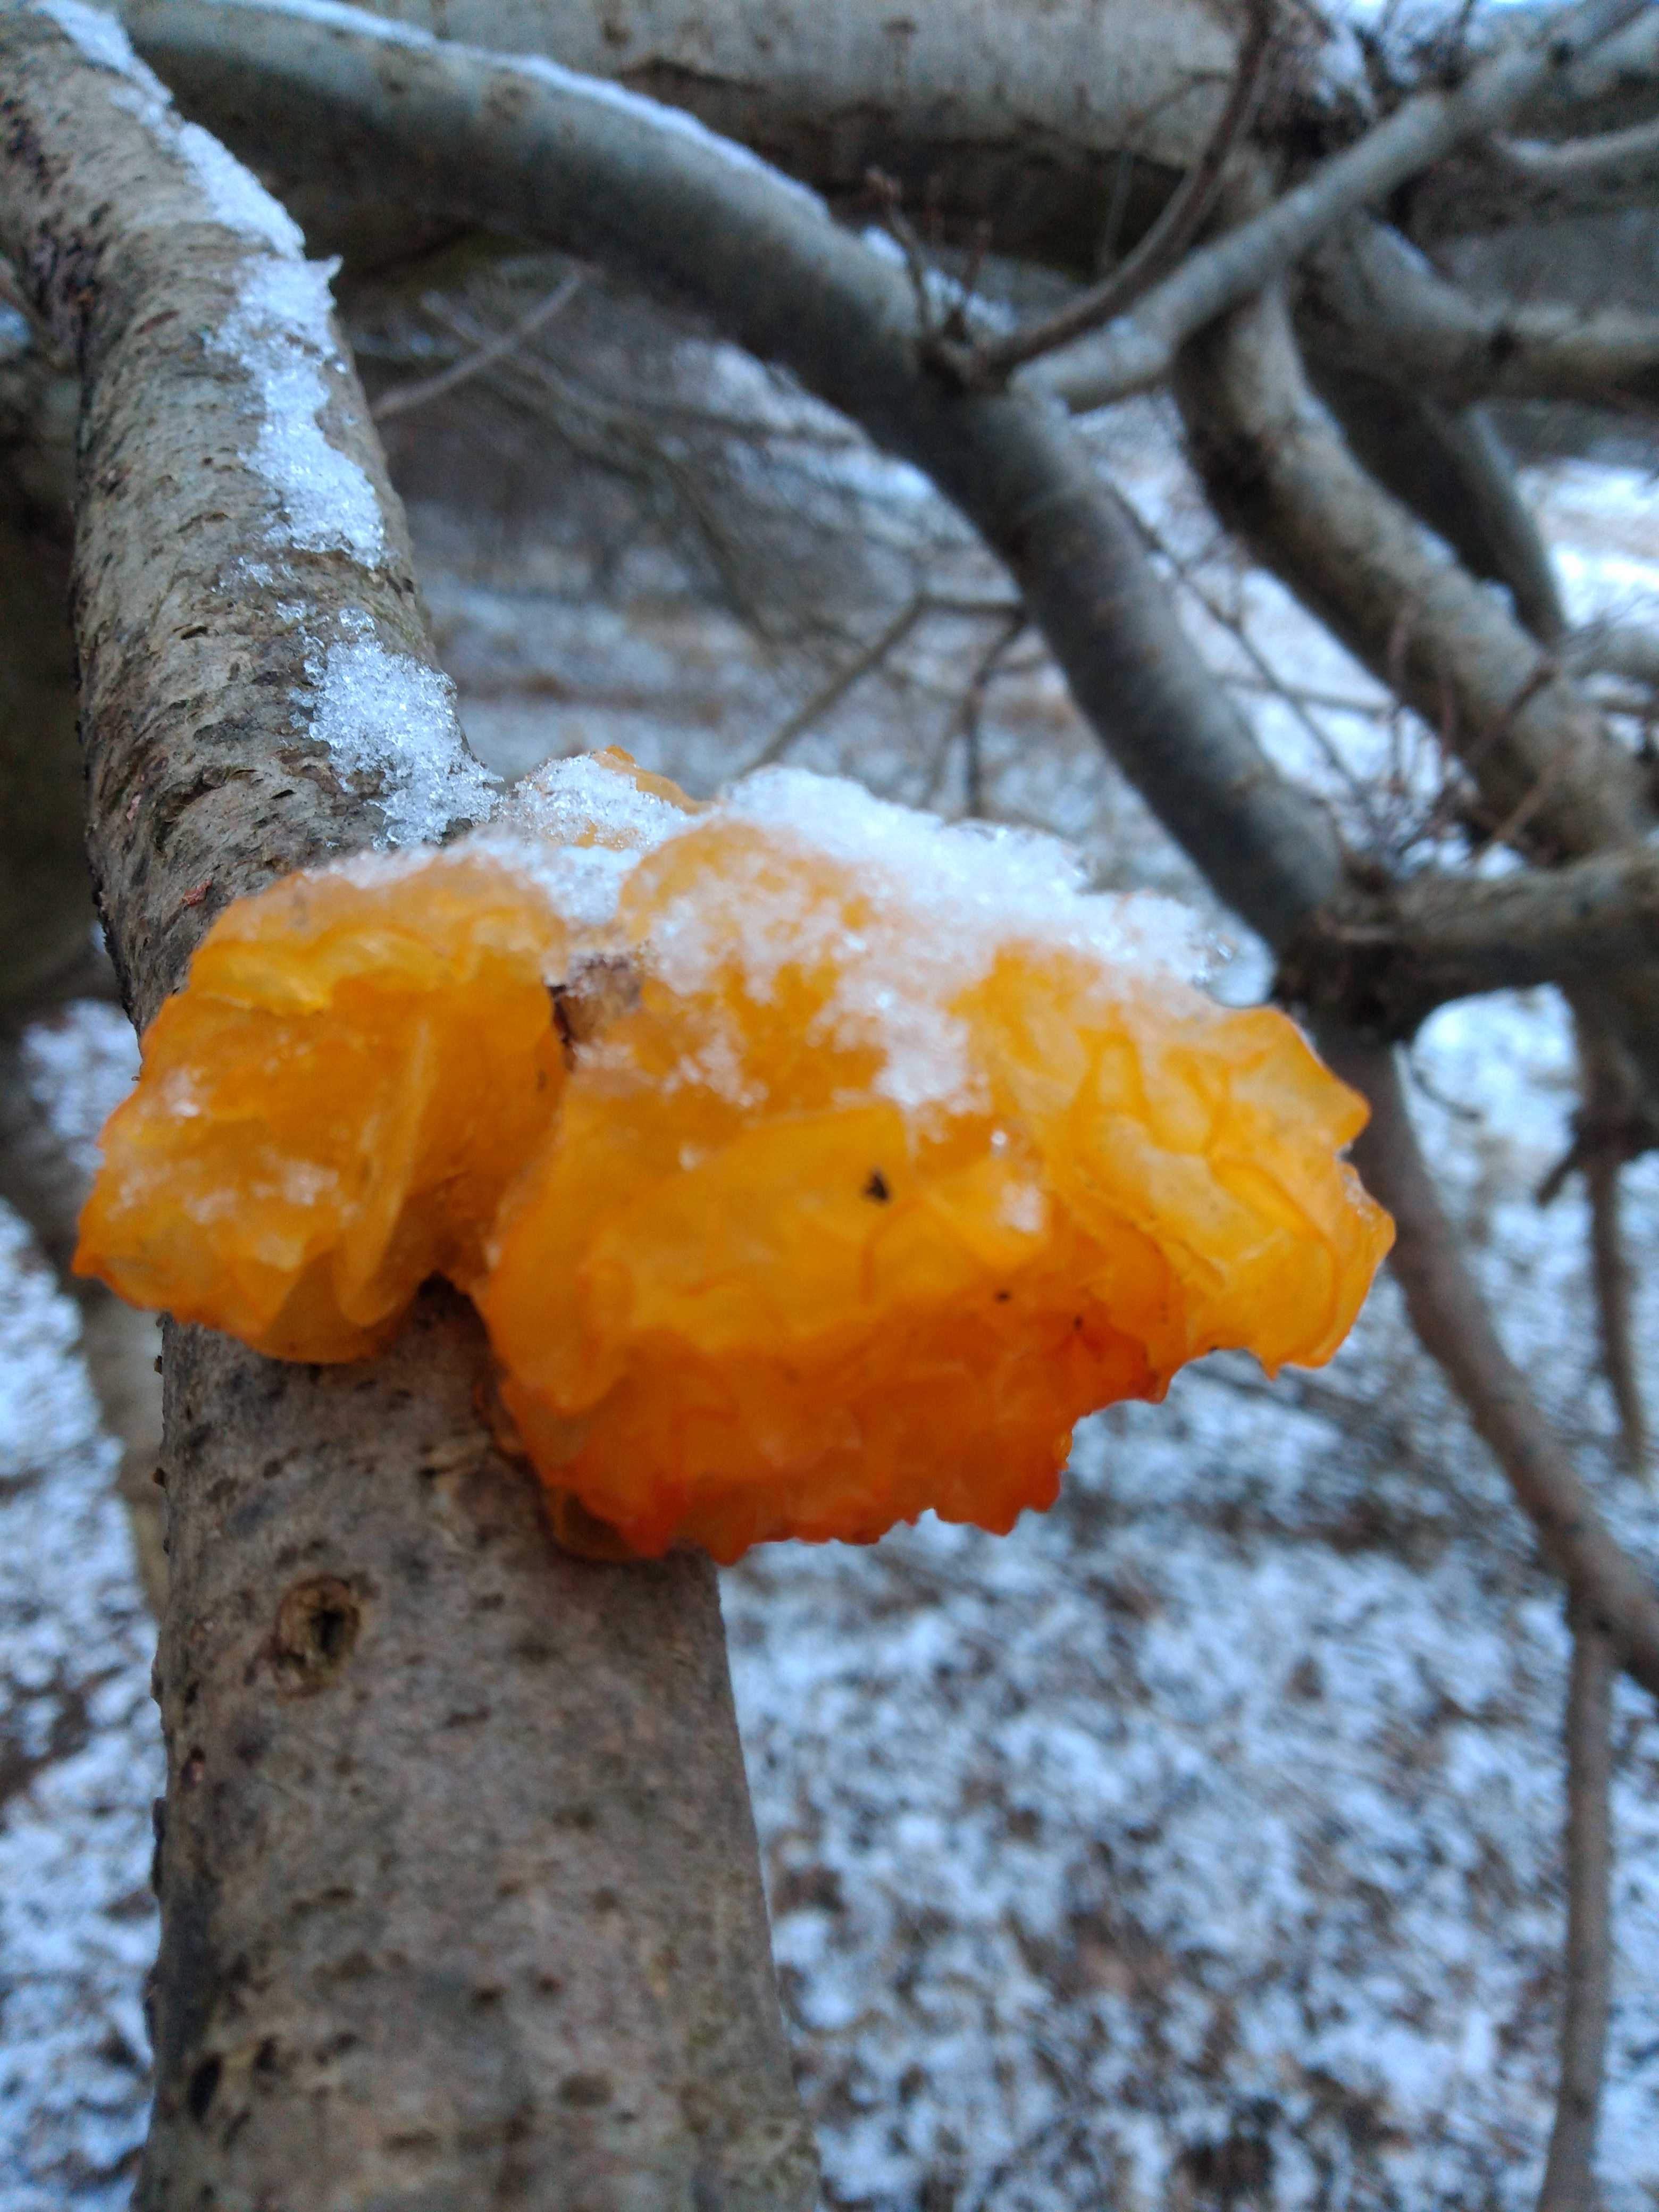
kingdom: Fungi
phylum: Basidiomycota
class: Tremellomycetes
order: Tremellales
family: Tremellaceae
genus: Tremella
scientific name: Tremella mesenterica
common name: gul bævresvamp
